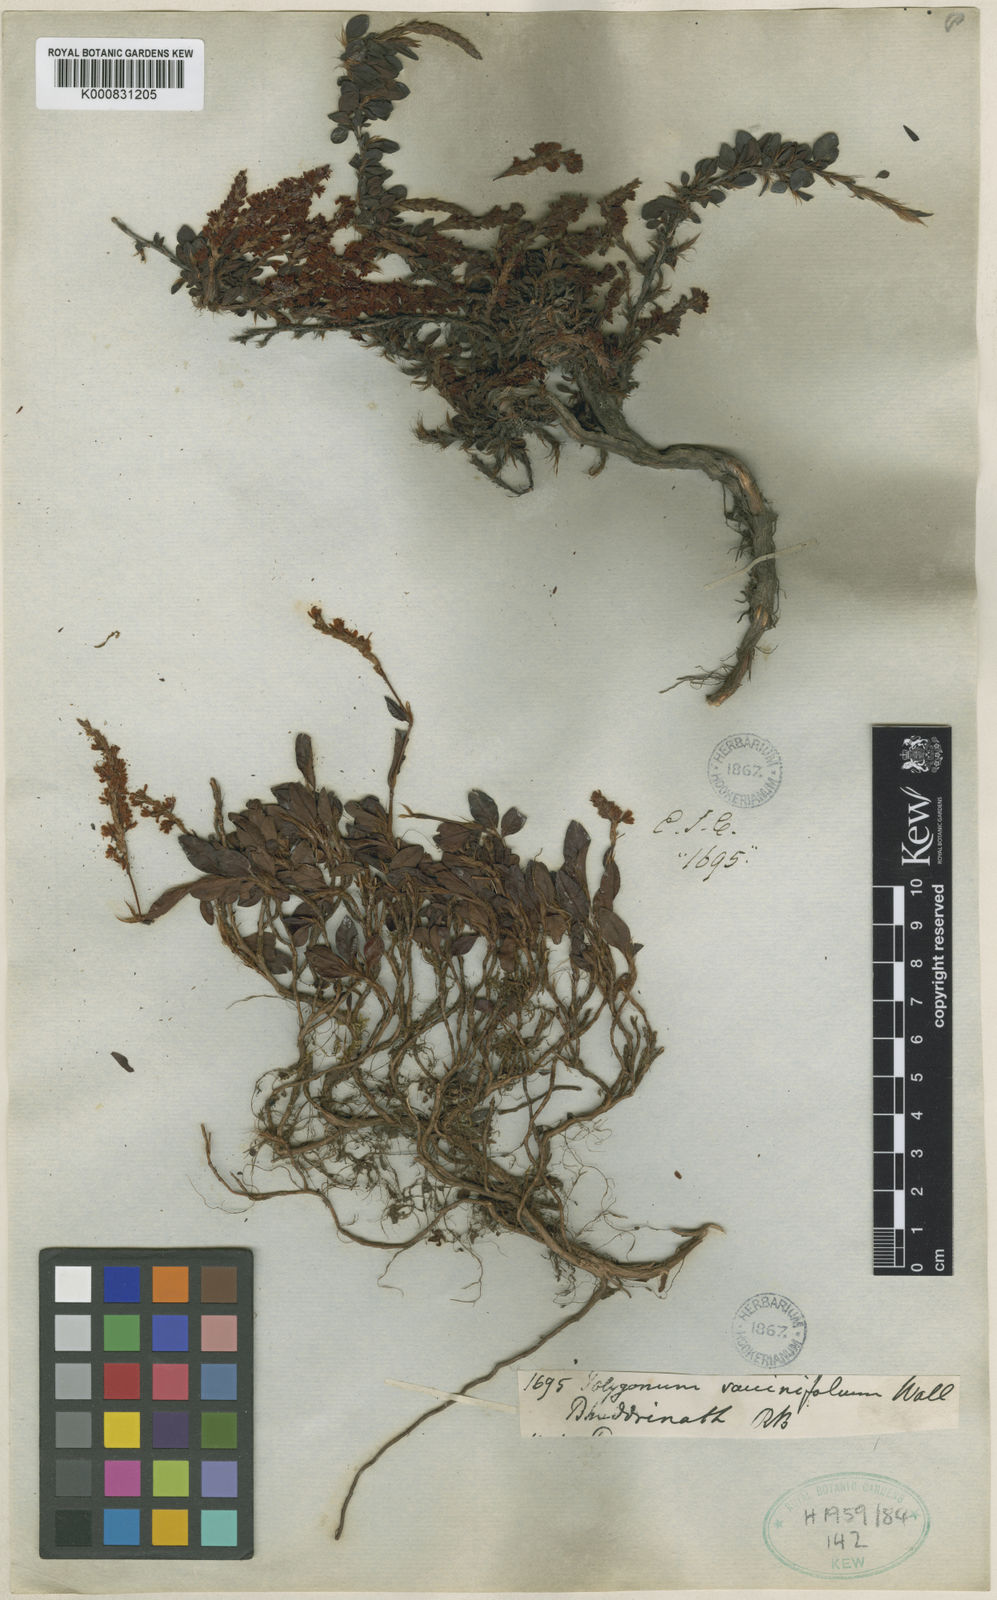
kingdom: Plantae
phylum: Tracheophyta
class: Magnoliopsida
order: Caryophyllales
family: Polygonaceae
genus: Bistorta
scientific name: Bistorta vacciniifolia
